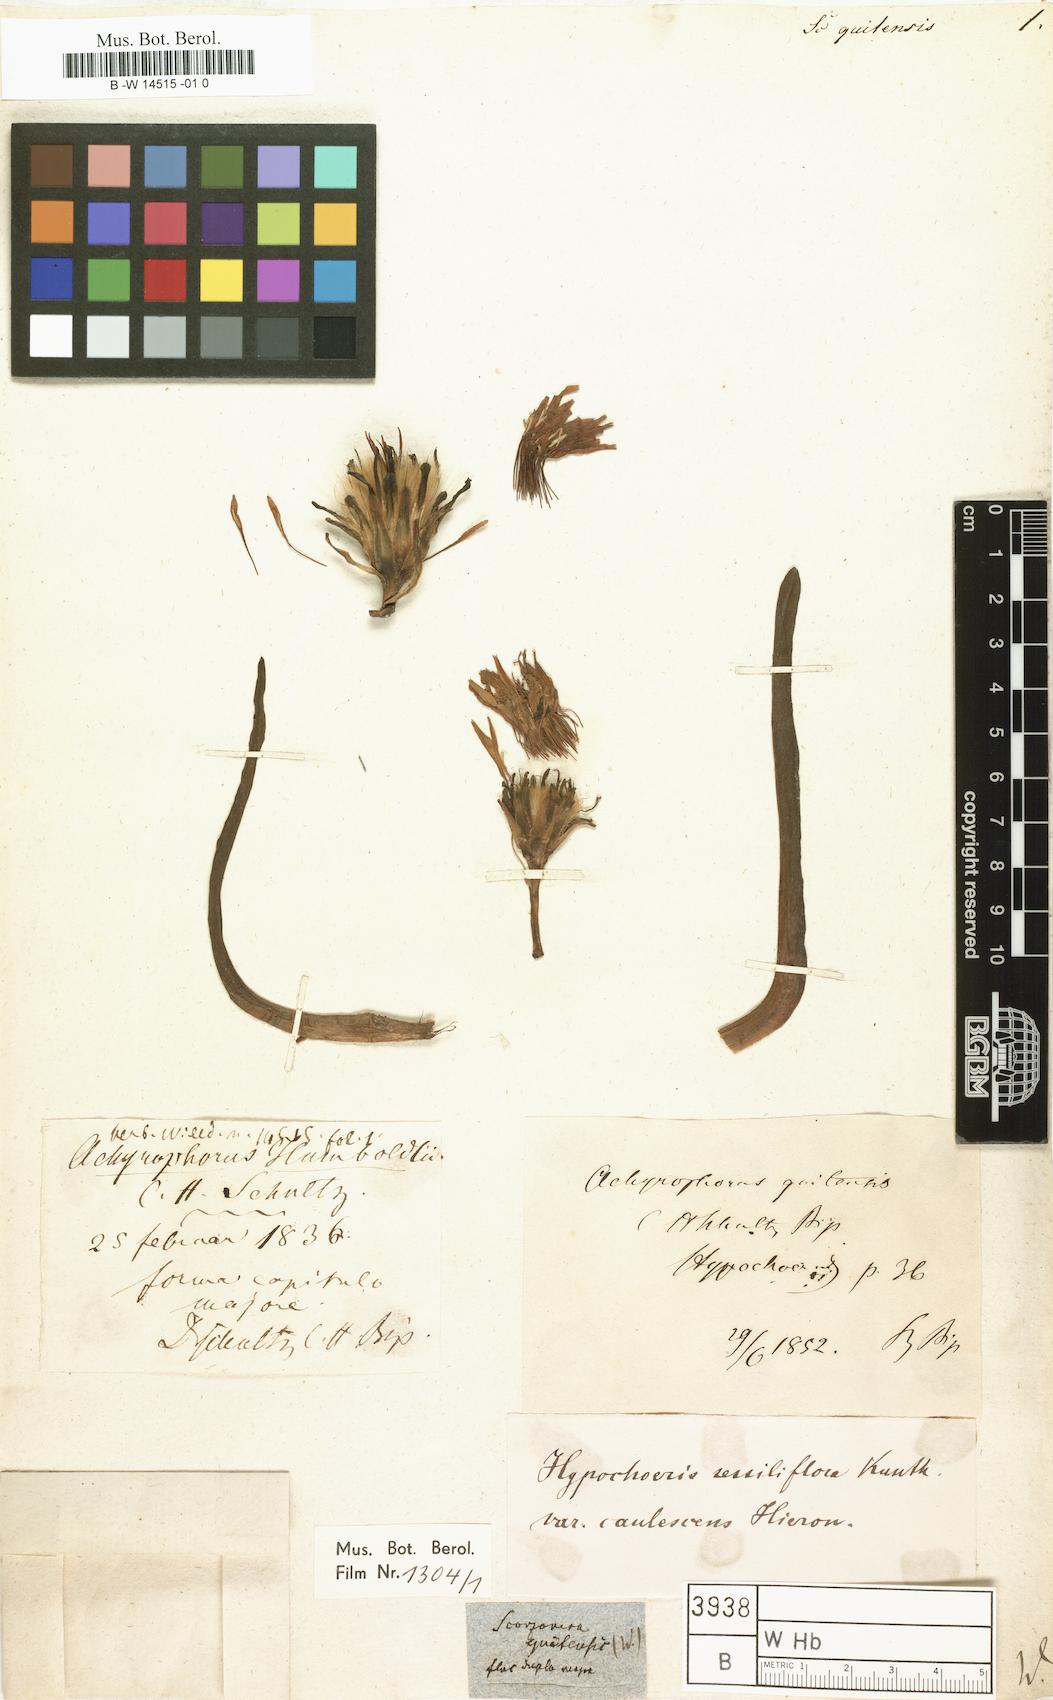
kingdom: Plantae
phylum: Tracheophyta
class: Magnoliopsida
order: Asterales
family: Asteraceae
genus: Hypochaeris
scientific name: Hypochaeris sessiliflora
